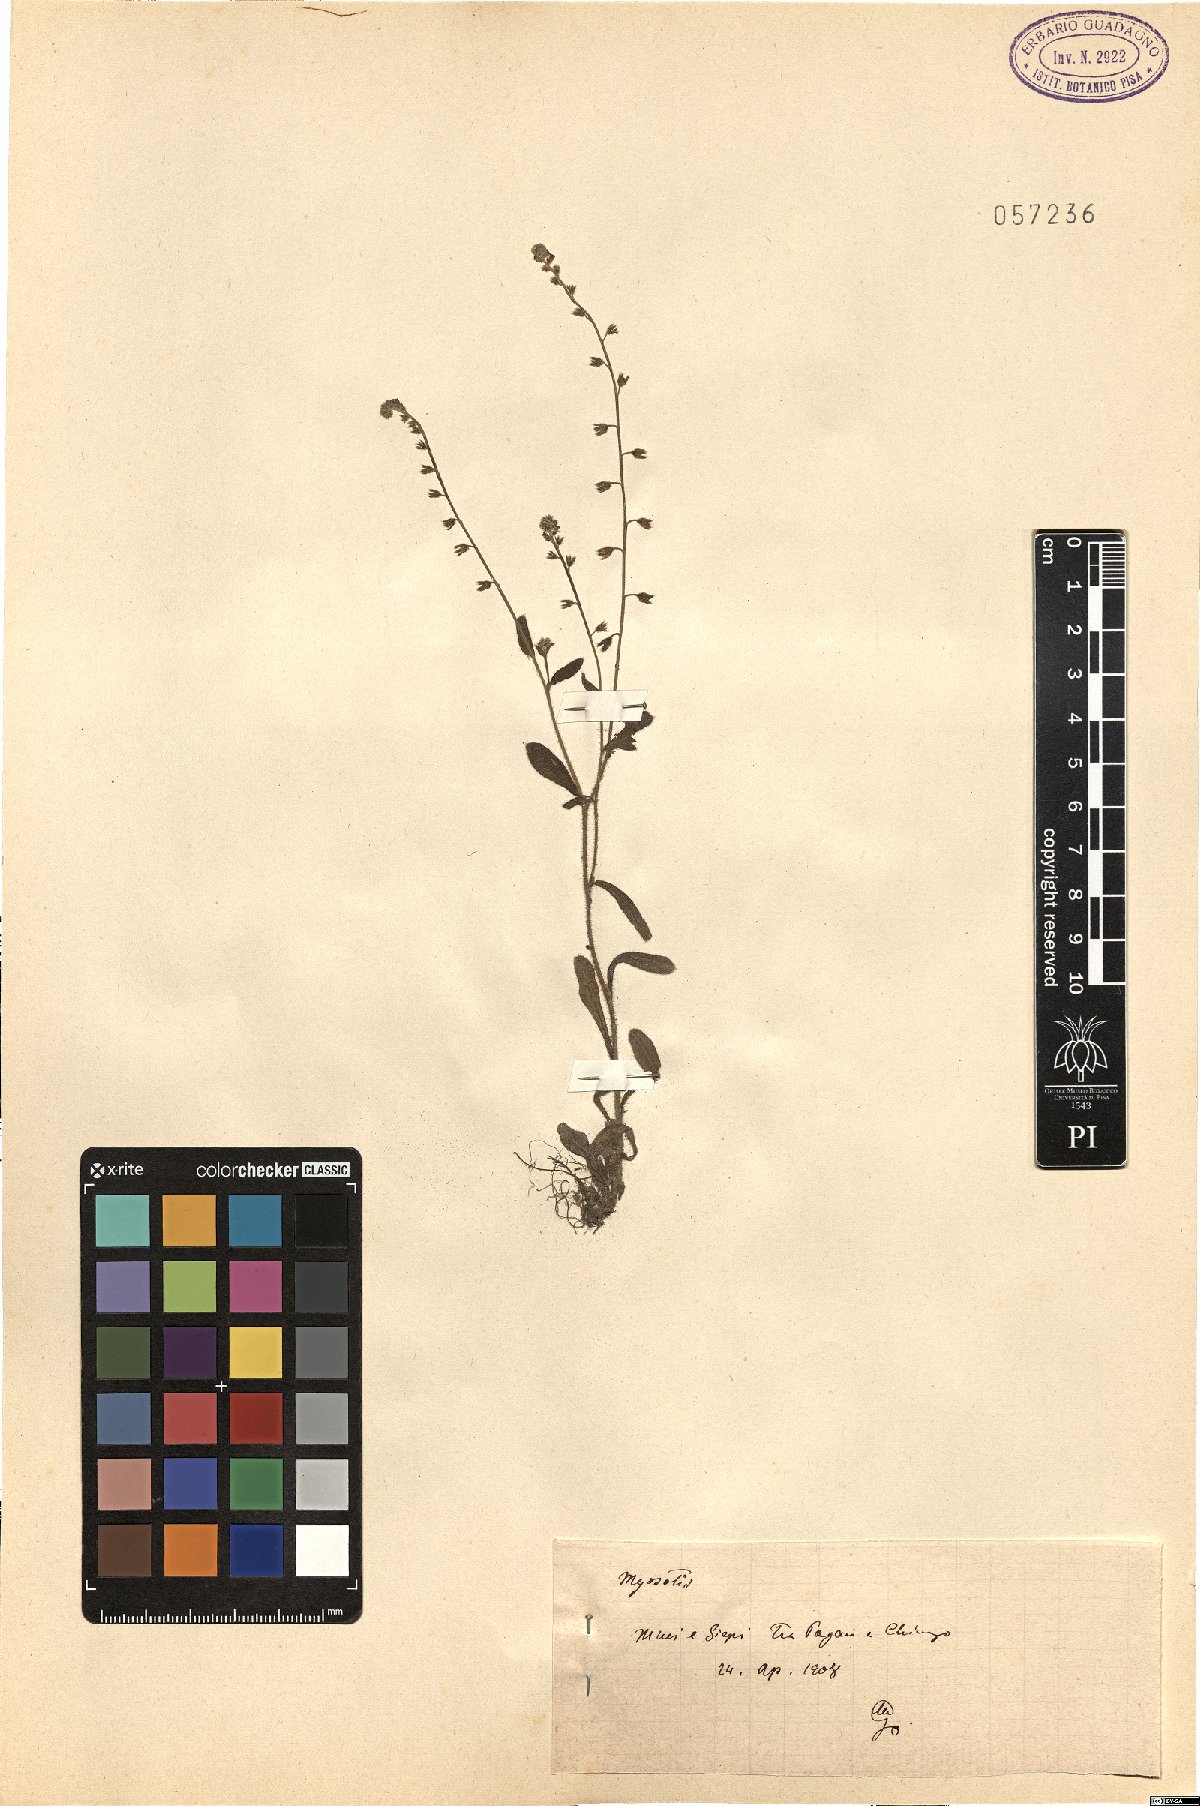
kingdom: Plantae
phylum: Tracheophyta
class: Magnoliopsida
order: Boraginales
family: Boraginaceae
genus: Myosotis
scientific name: Myosotis
